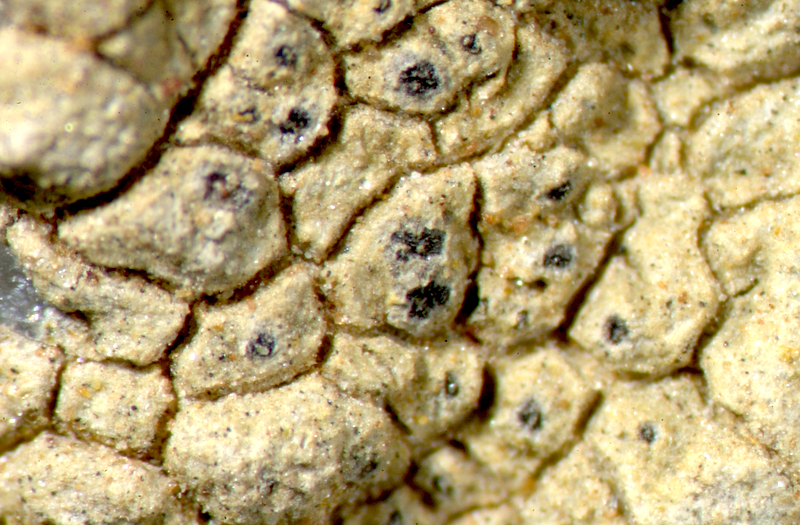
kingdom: Fungi
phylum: Ascomycota
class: Lecanoromycetes
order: Caliciales
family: Physciaceae
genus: Physcia
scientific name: Physcia
